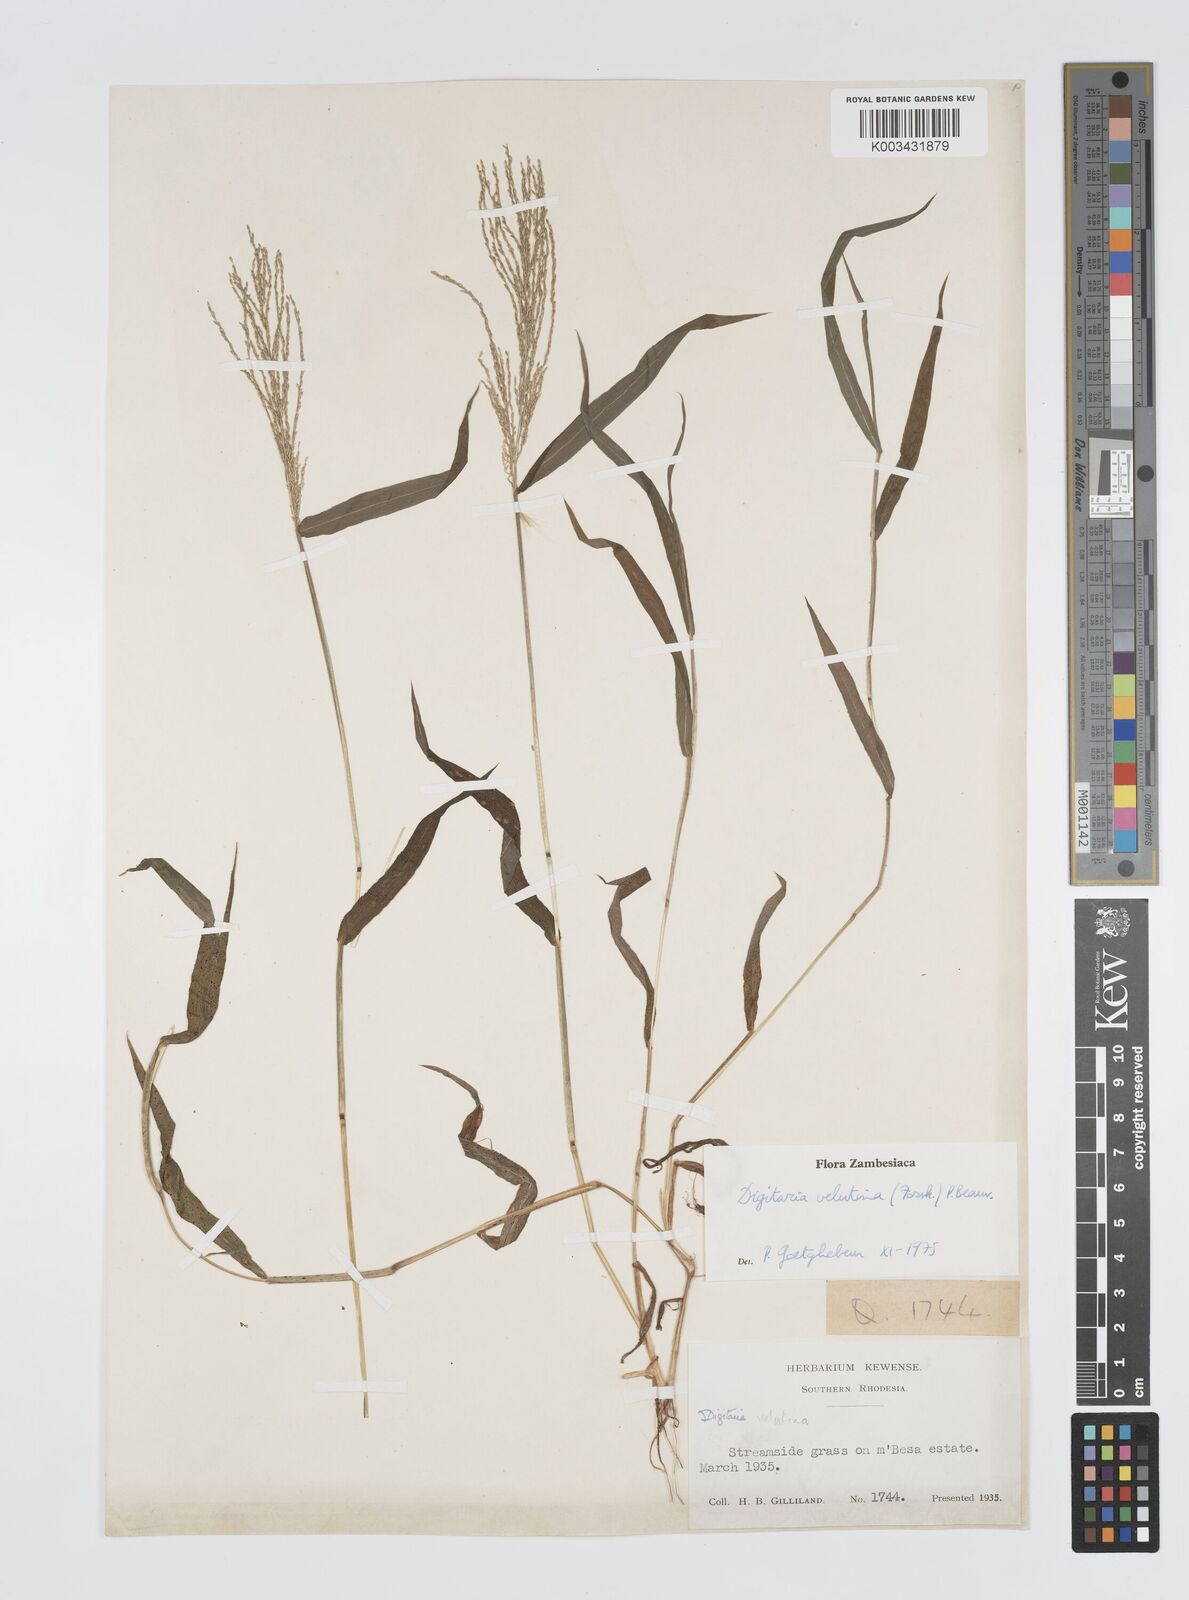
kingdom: Plantae
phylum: Tracheophyta
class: Liliopsida
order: Poales
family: Poaceae
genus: Digitaria
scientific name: Digitaria velutina
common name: Long-plume finger grass
